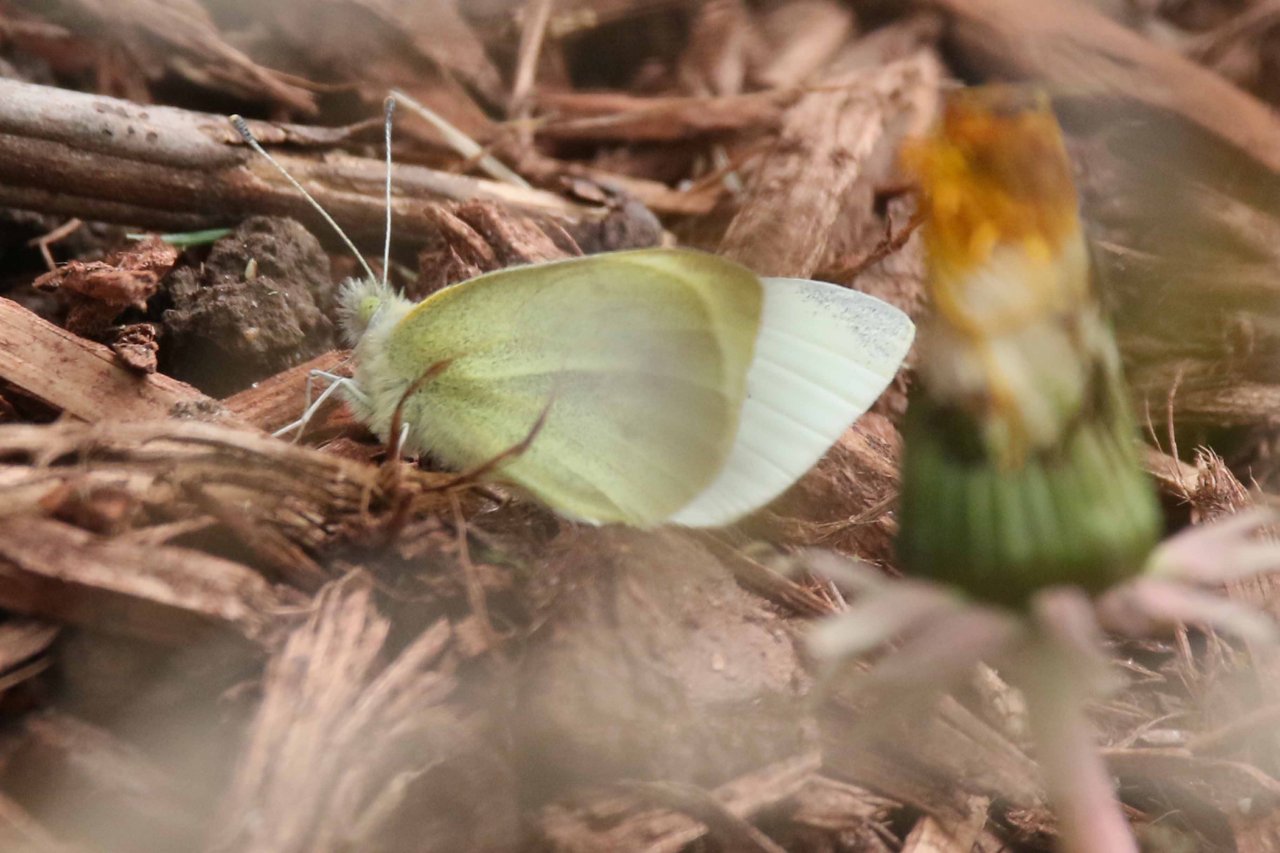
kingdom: Animalia
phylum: Arthropoda
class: Insecta
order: Lepidoptera
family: Pieridae
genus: Pieris
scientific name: Pieris rapae
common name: Cabbage White
